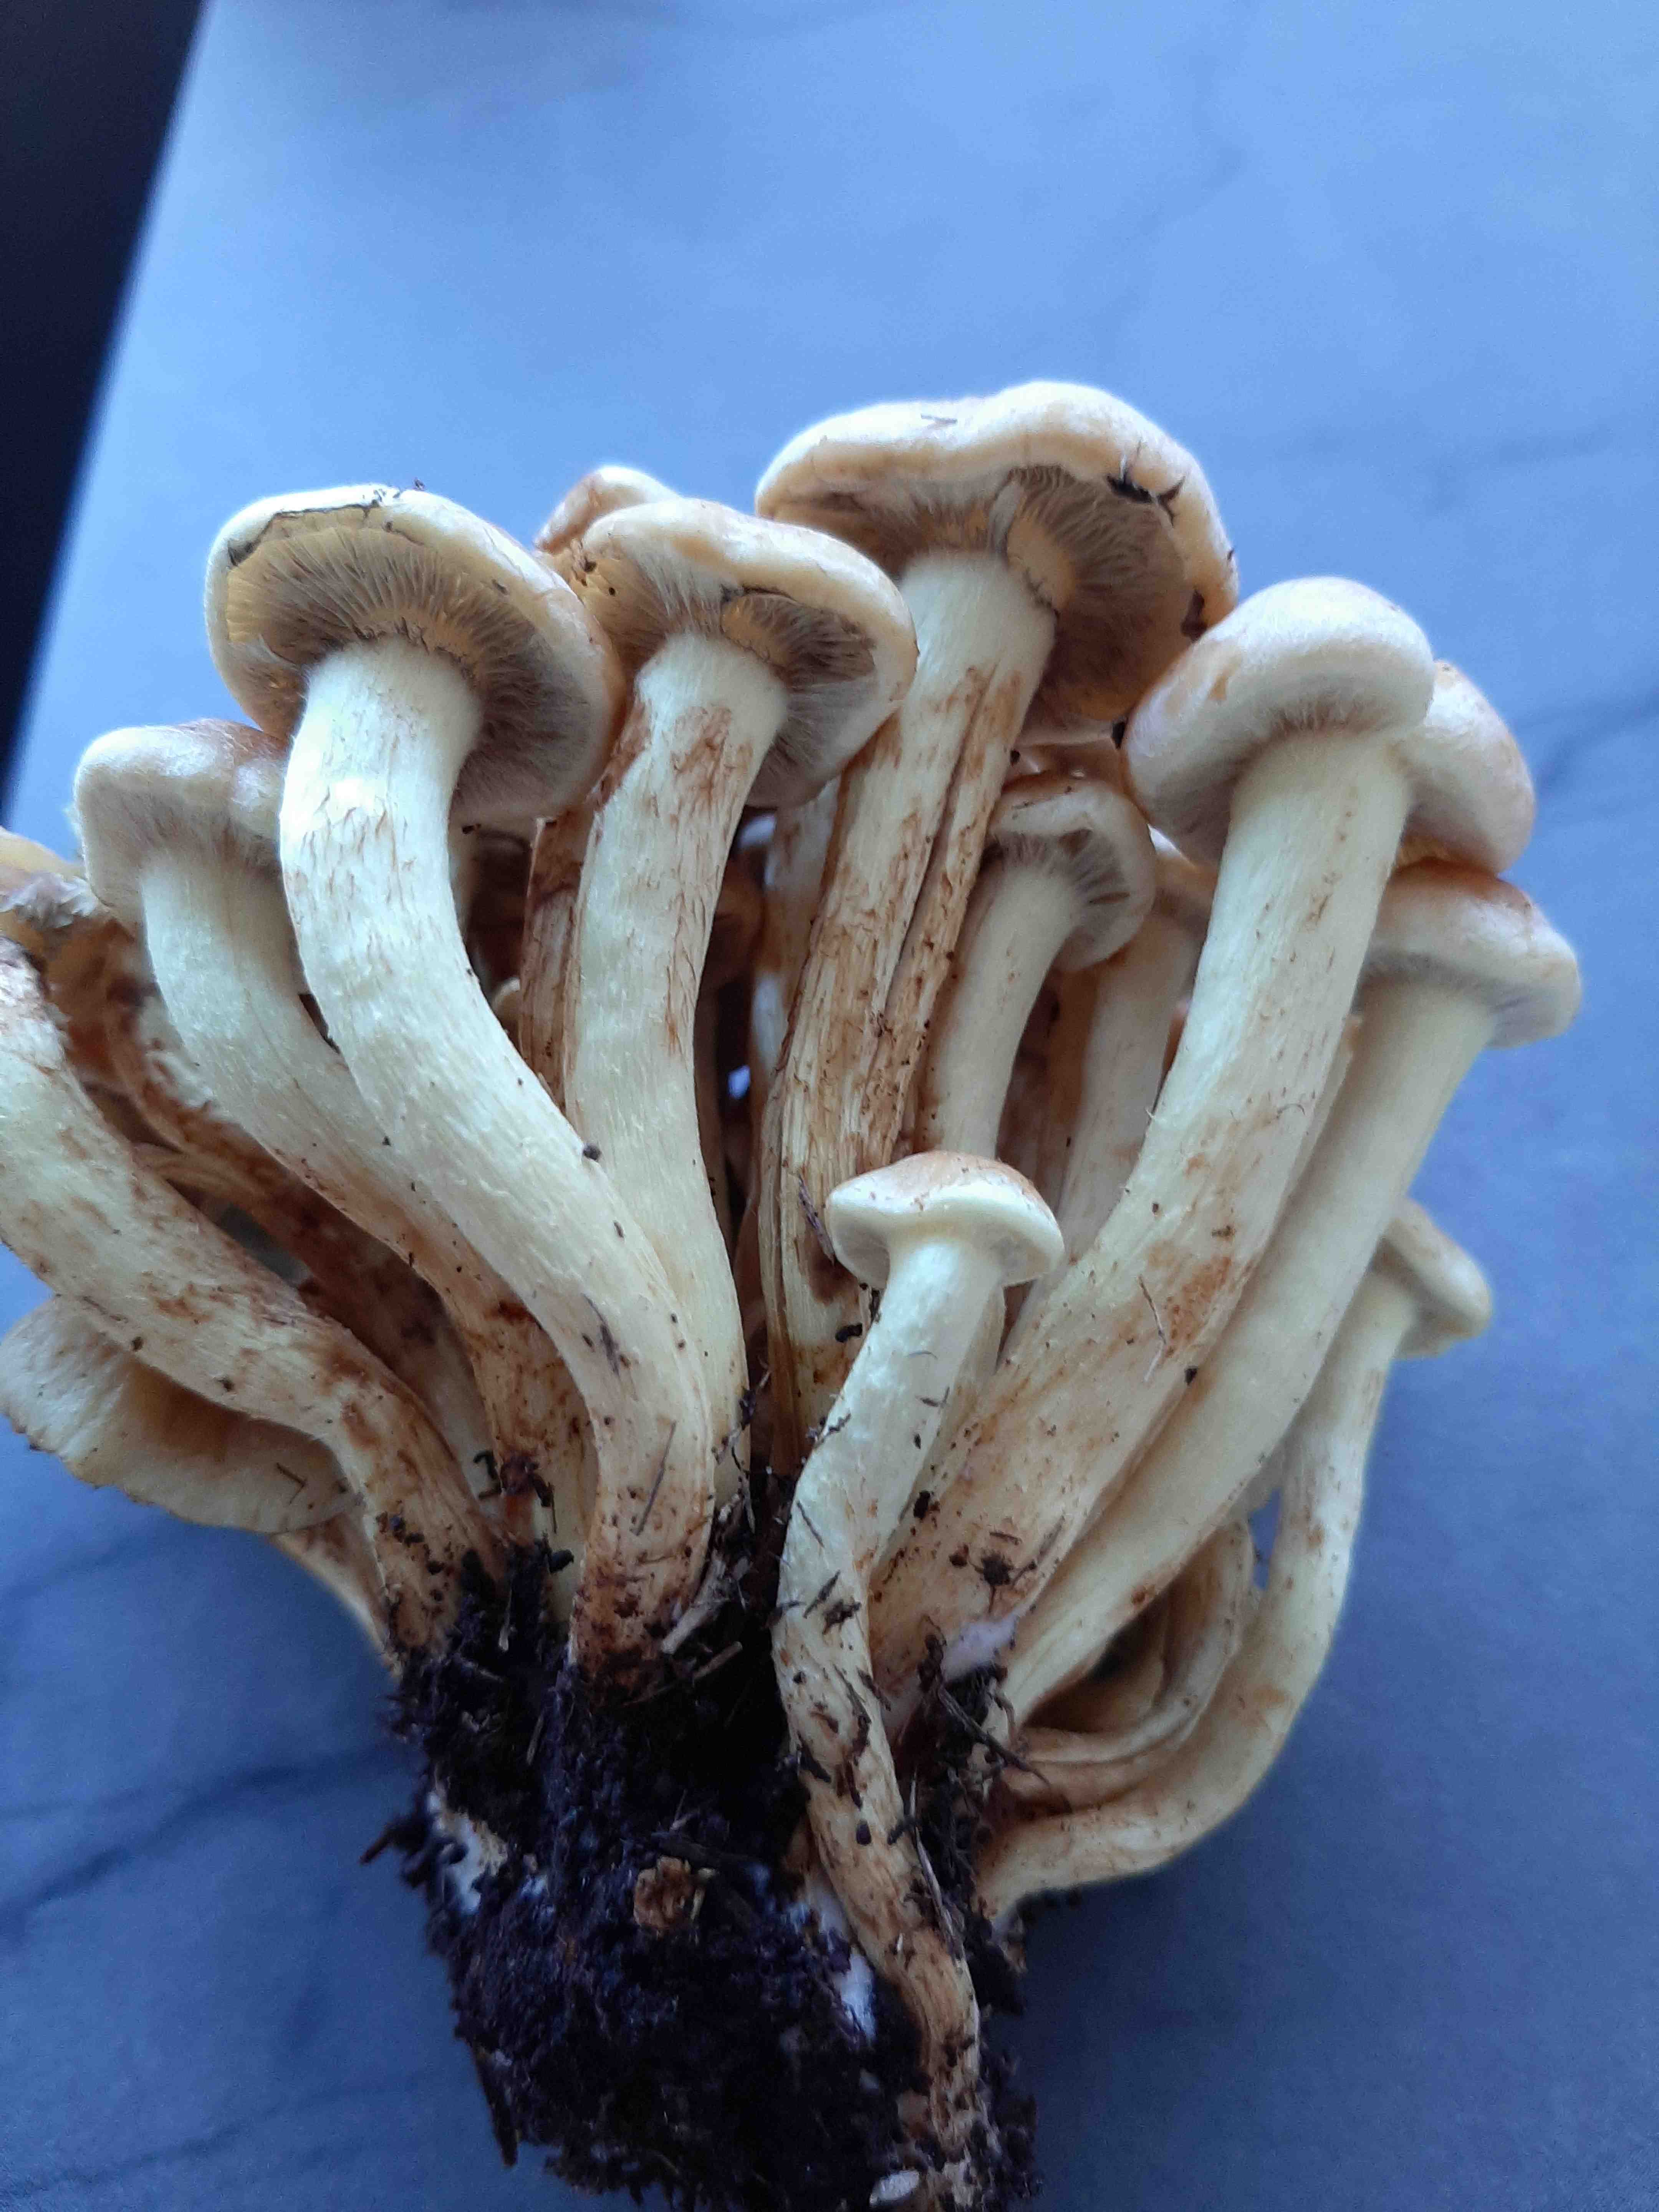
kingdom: Fungi
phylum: Basidiomycota
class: Agaricomycetes
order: Agaricales
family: Strophariaceae
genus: Hypholoma
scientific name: Hypholoma
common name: svovlhat
